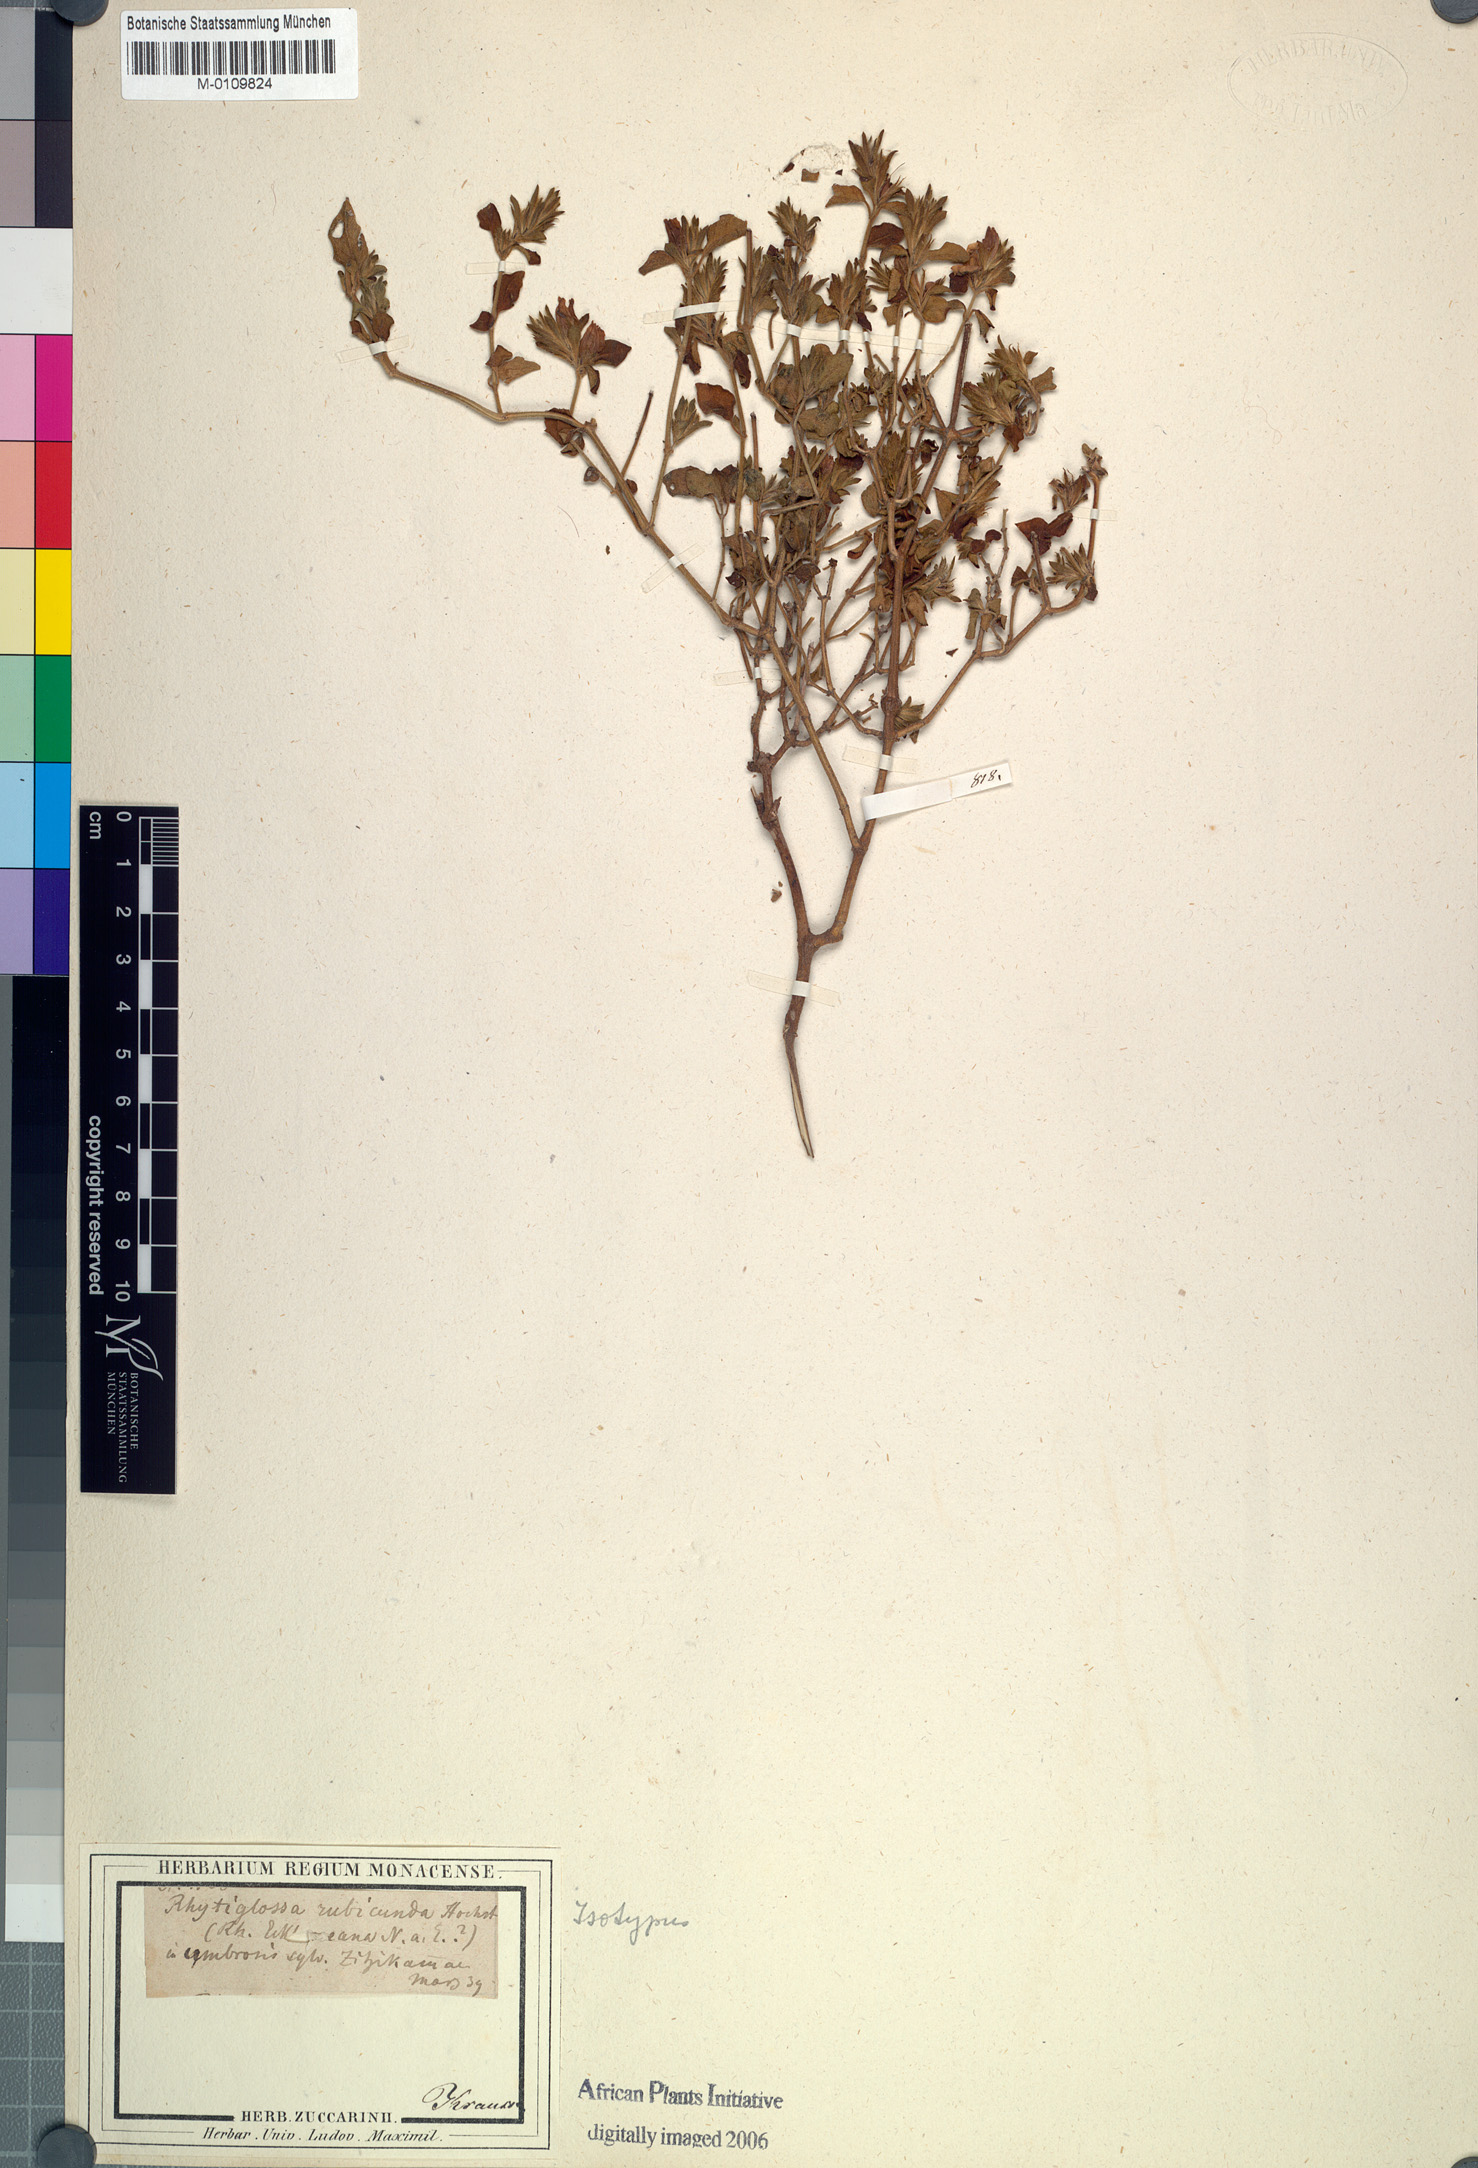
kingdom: Plantae
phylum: Tracheophyta
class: Magnoliopsida
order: Lamiales
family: Acanthaceae
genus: Justicia
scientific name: Justicia rubicunda
